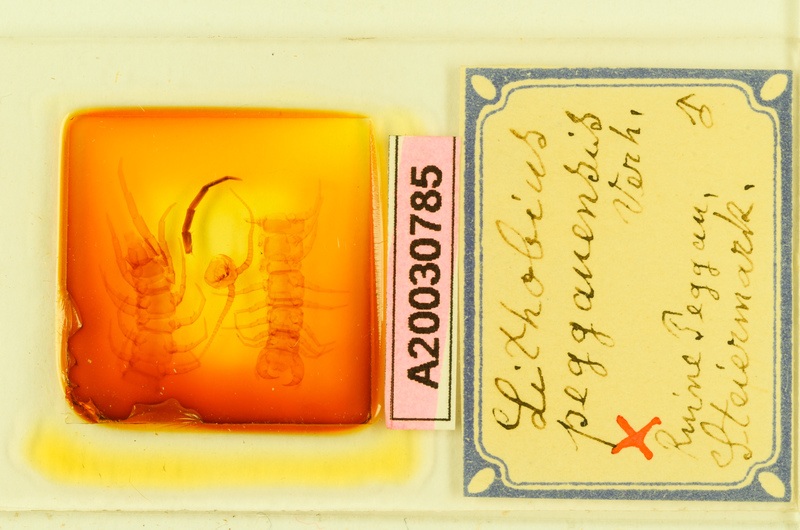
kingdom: Animalia
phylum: Arthropoda
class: Chilopoda
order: Lithobiomorpha
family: Lithobiidae
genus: Lithobius
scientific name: Lithobius peggauensis
